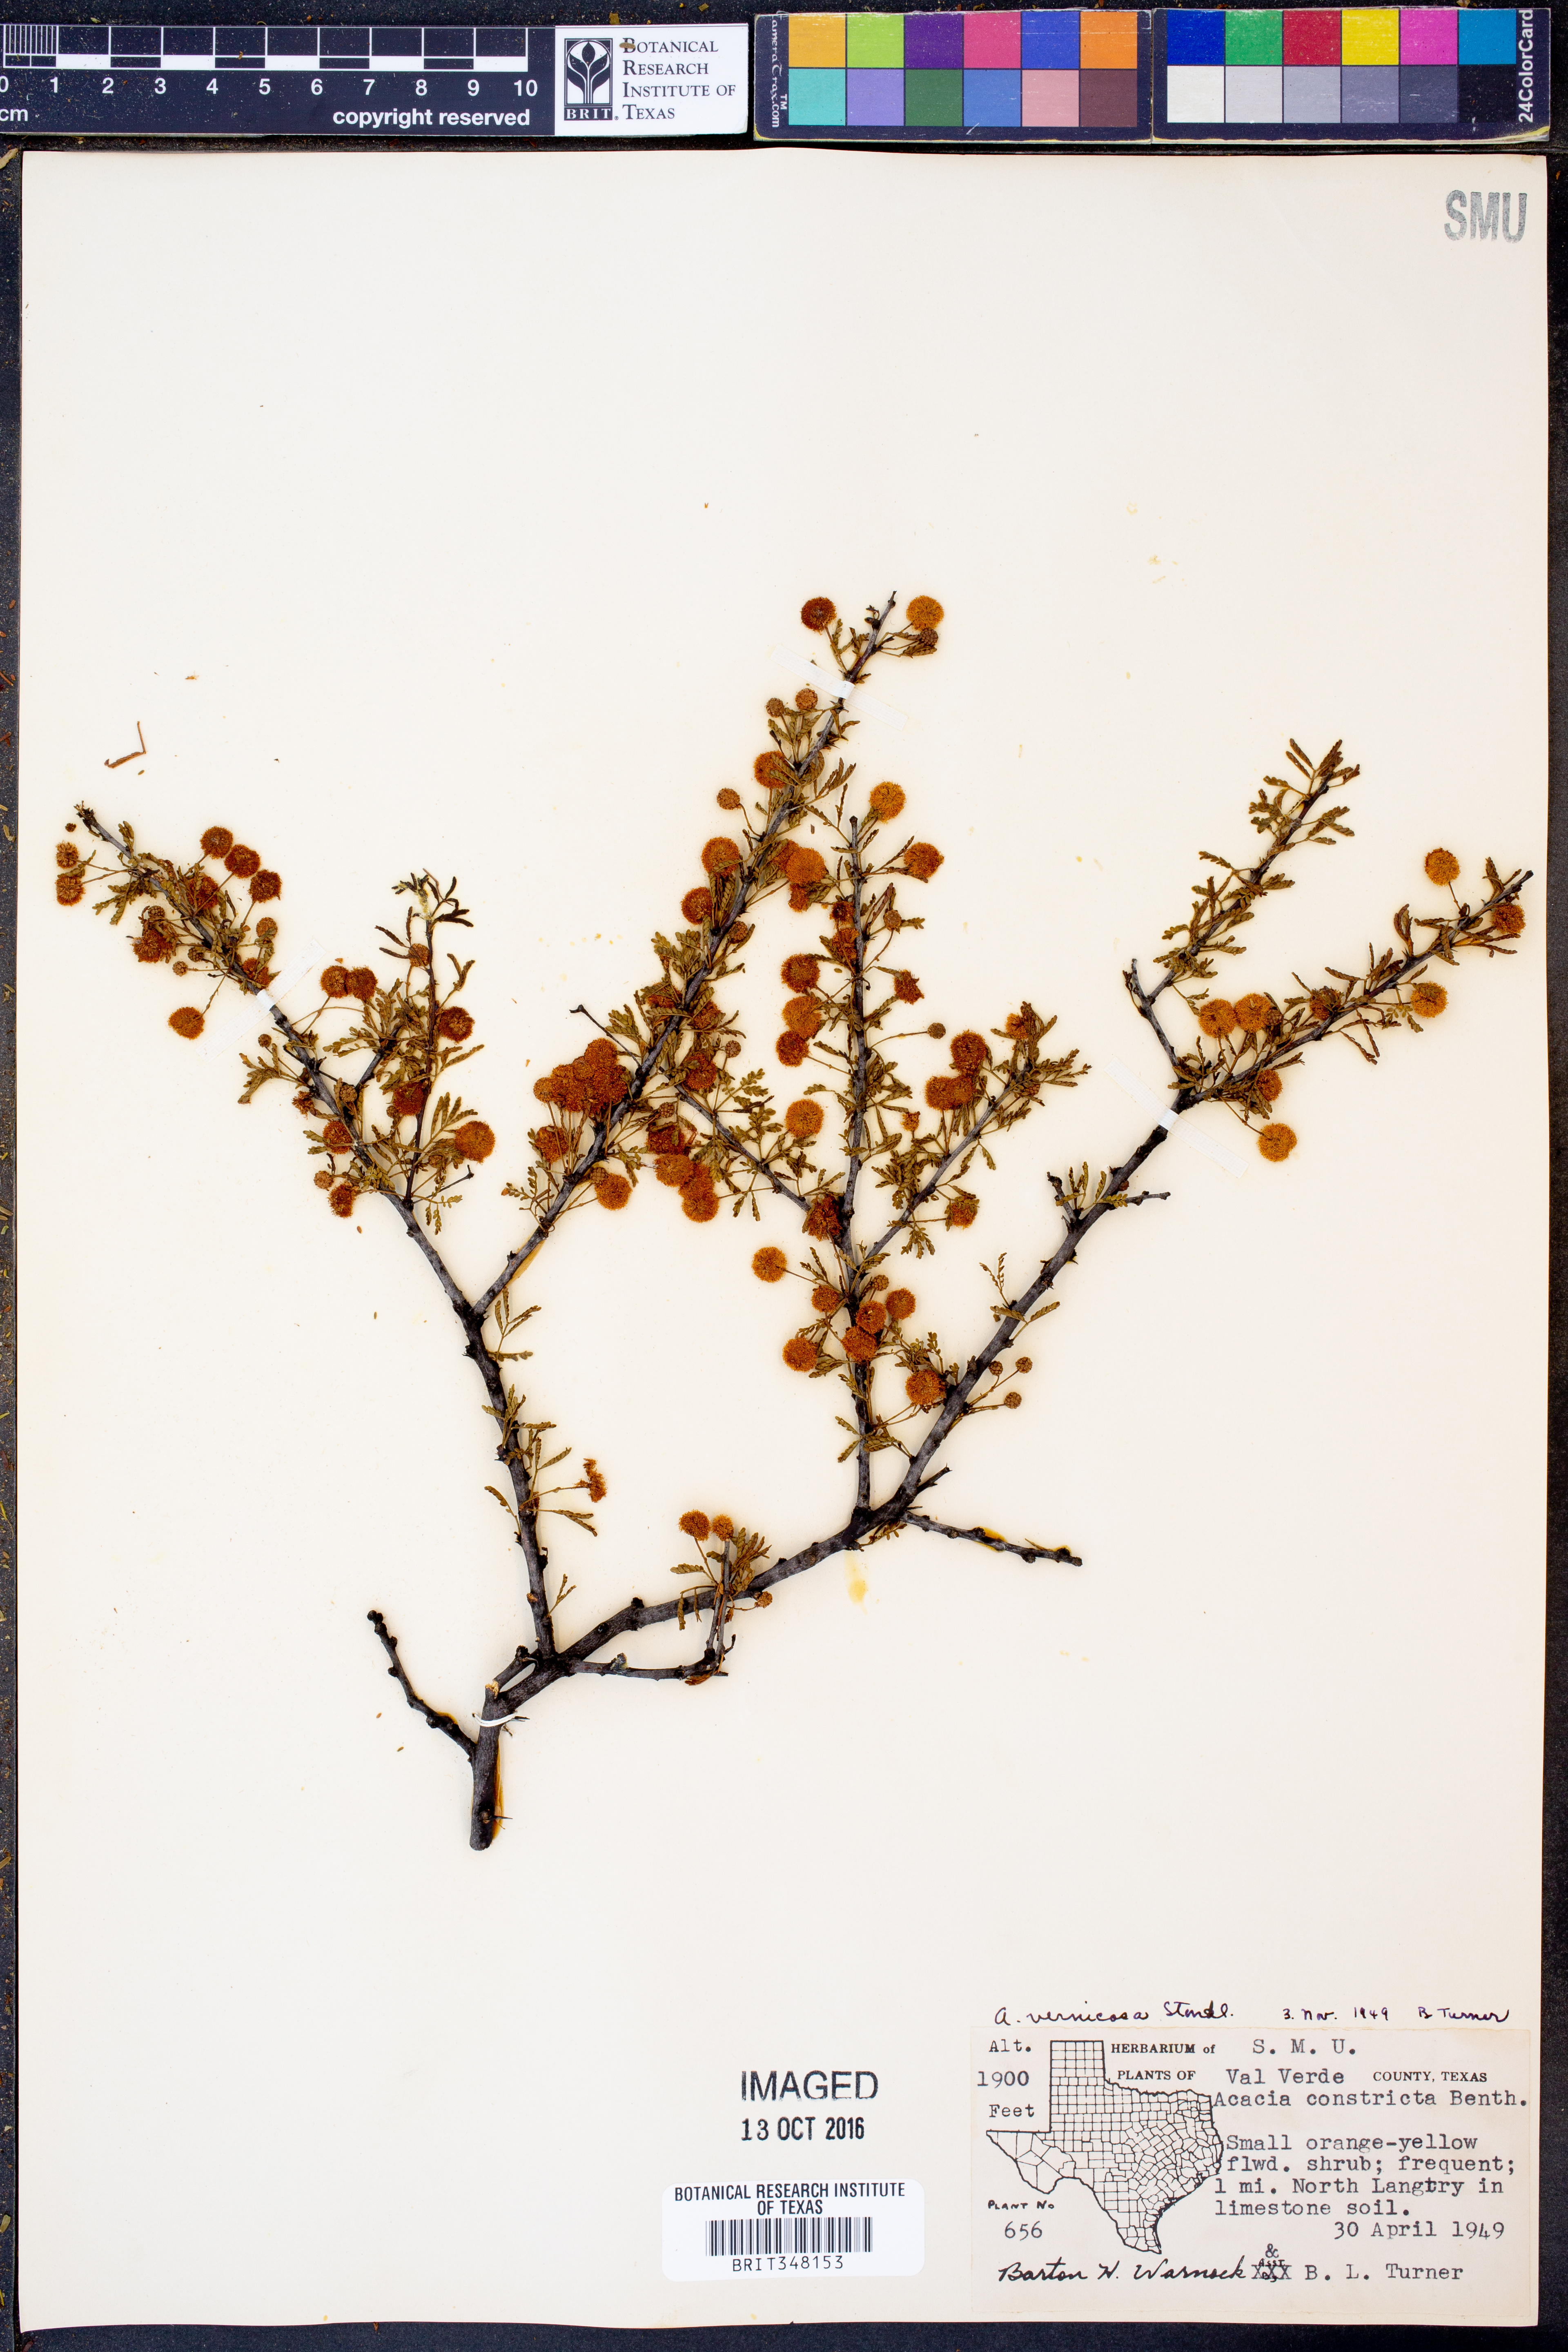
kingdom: Plantae
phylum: Tracheophyta
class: Magnoliopsida
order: Fabales
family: Fabaceae
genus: Vachellia
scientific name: Vachellia vernicosa
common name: Viscid acacia
